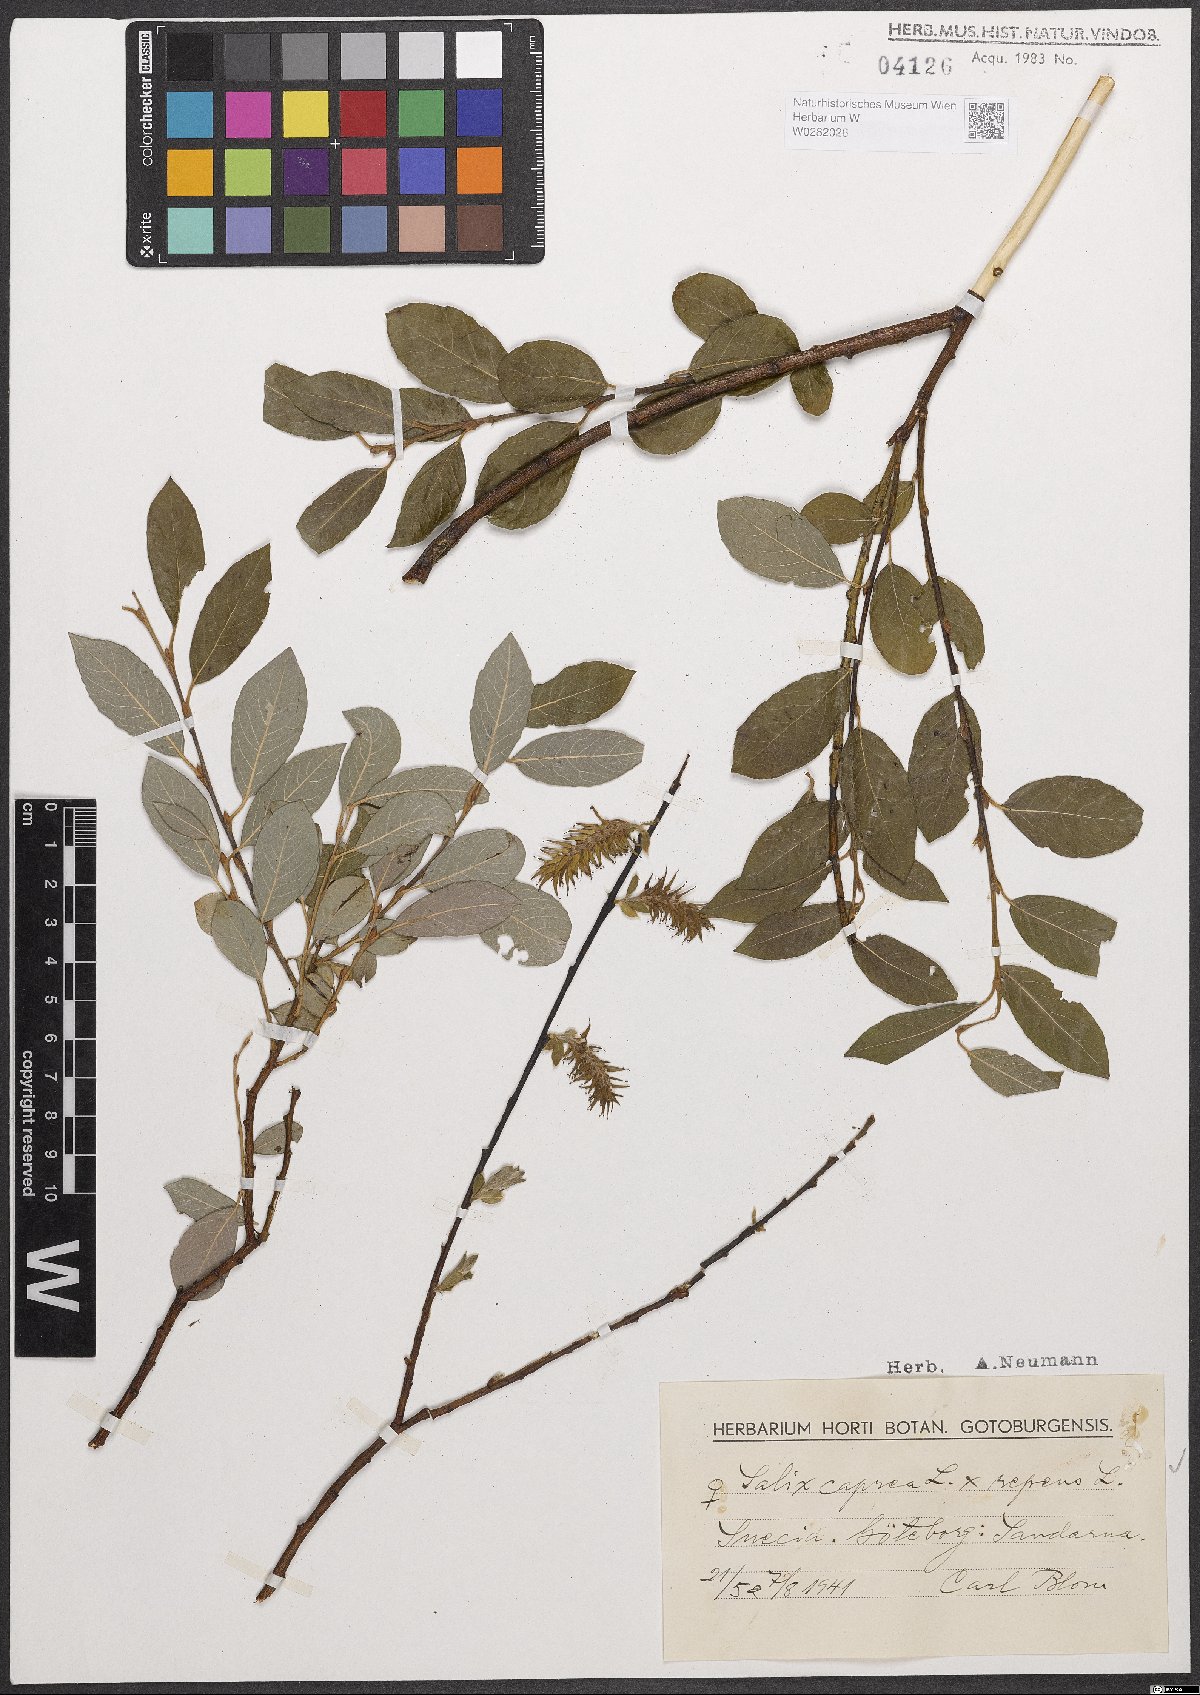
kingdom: Plantae
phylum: Tracheophyta
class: Magnoliopsida
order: Malpighiales
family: Salicaceae
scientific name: Salicaceae
